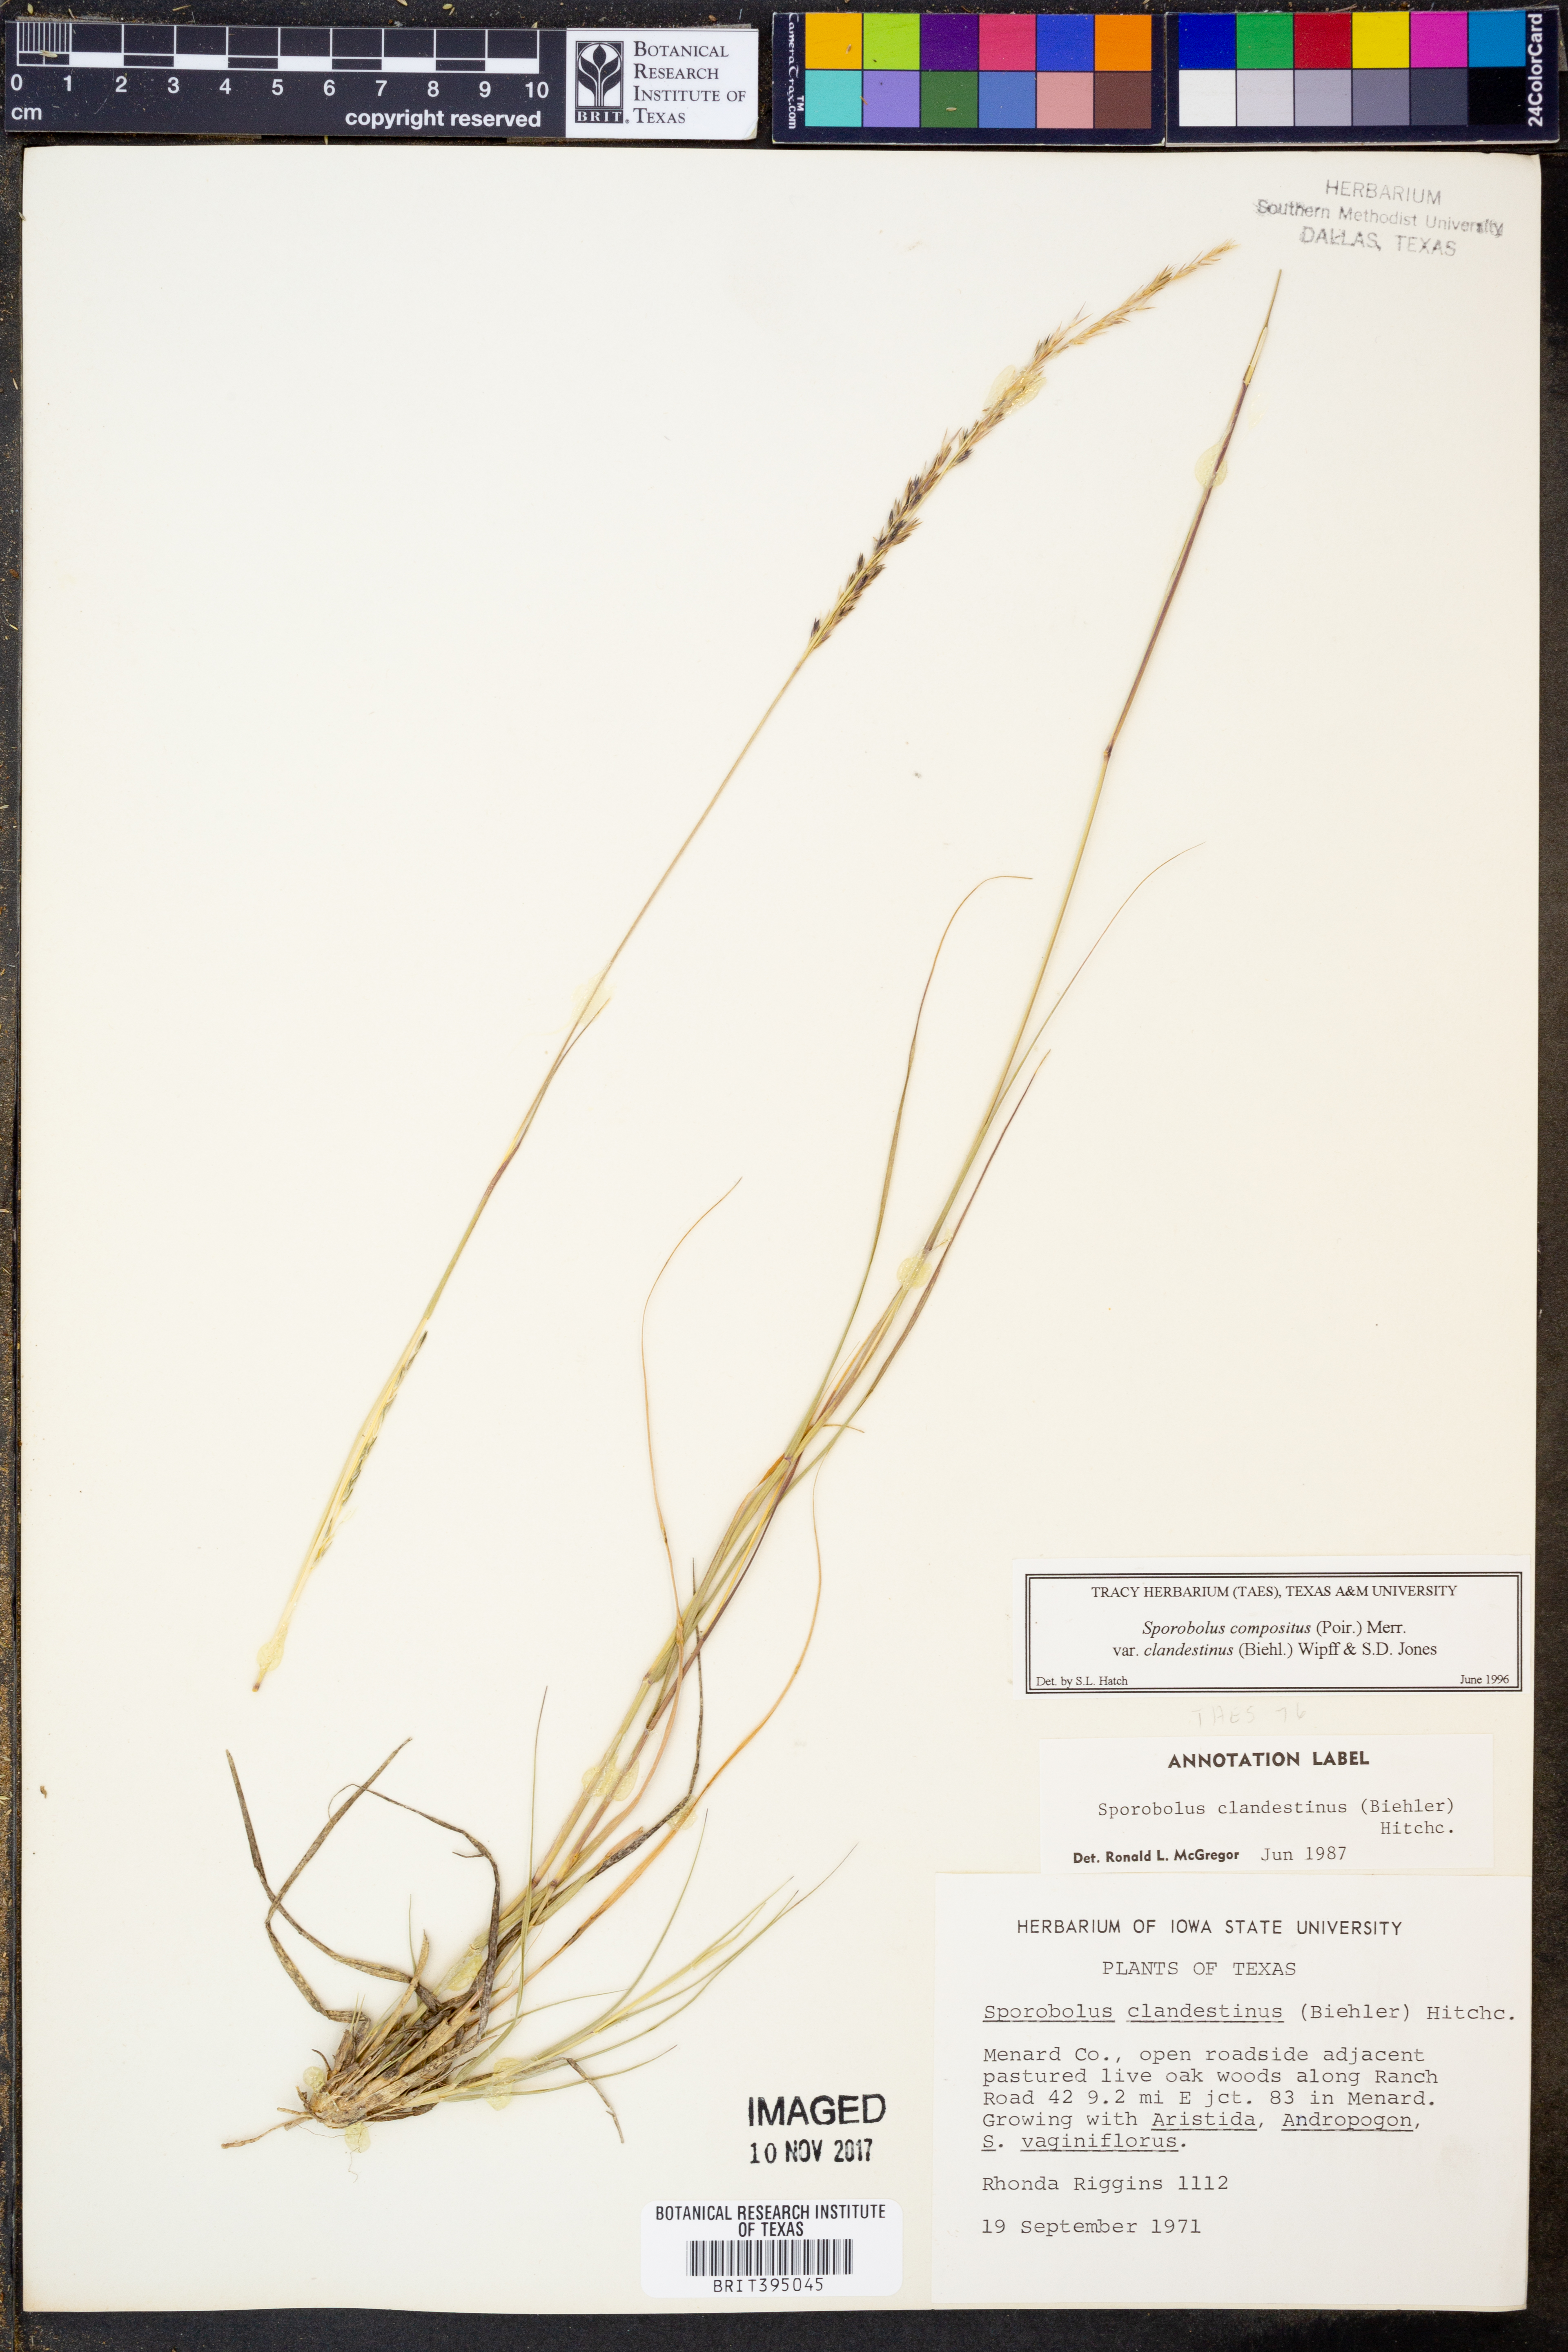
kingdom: Plantae
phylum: Tracheophyta
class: Liliopsida
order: Poales
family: Poaceae
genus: Sporobolus
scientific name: Sporobolus clandestinus
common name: Hidden dropseed
